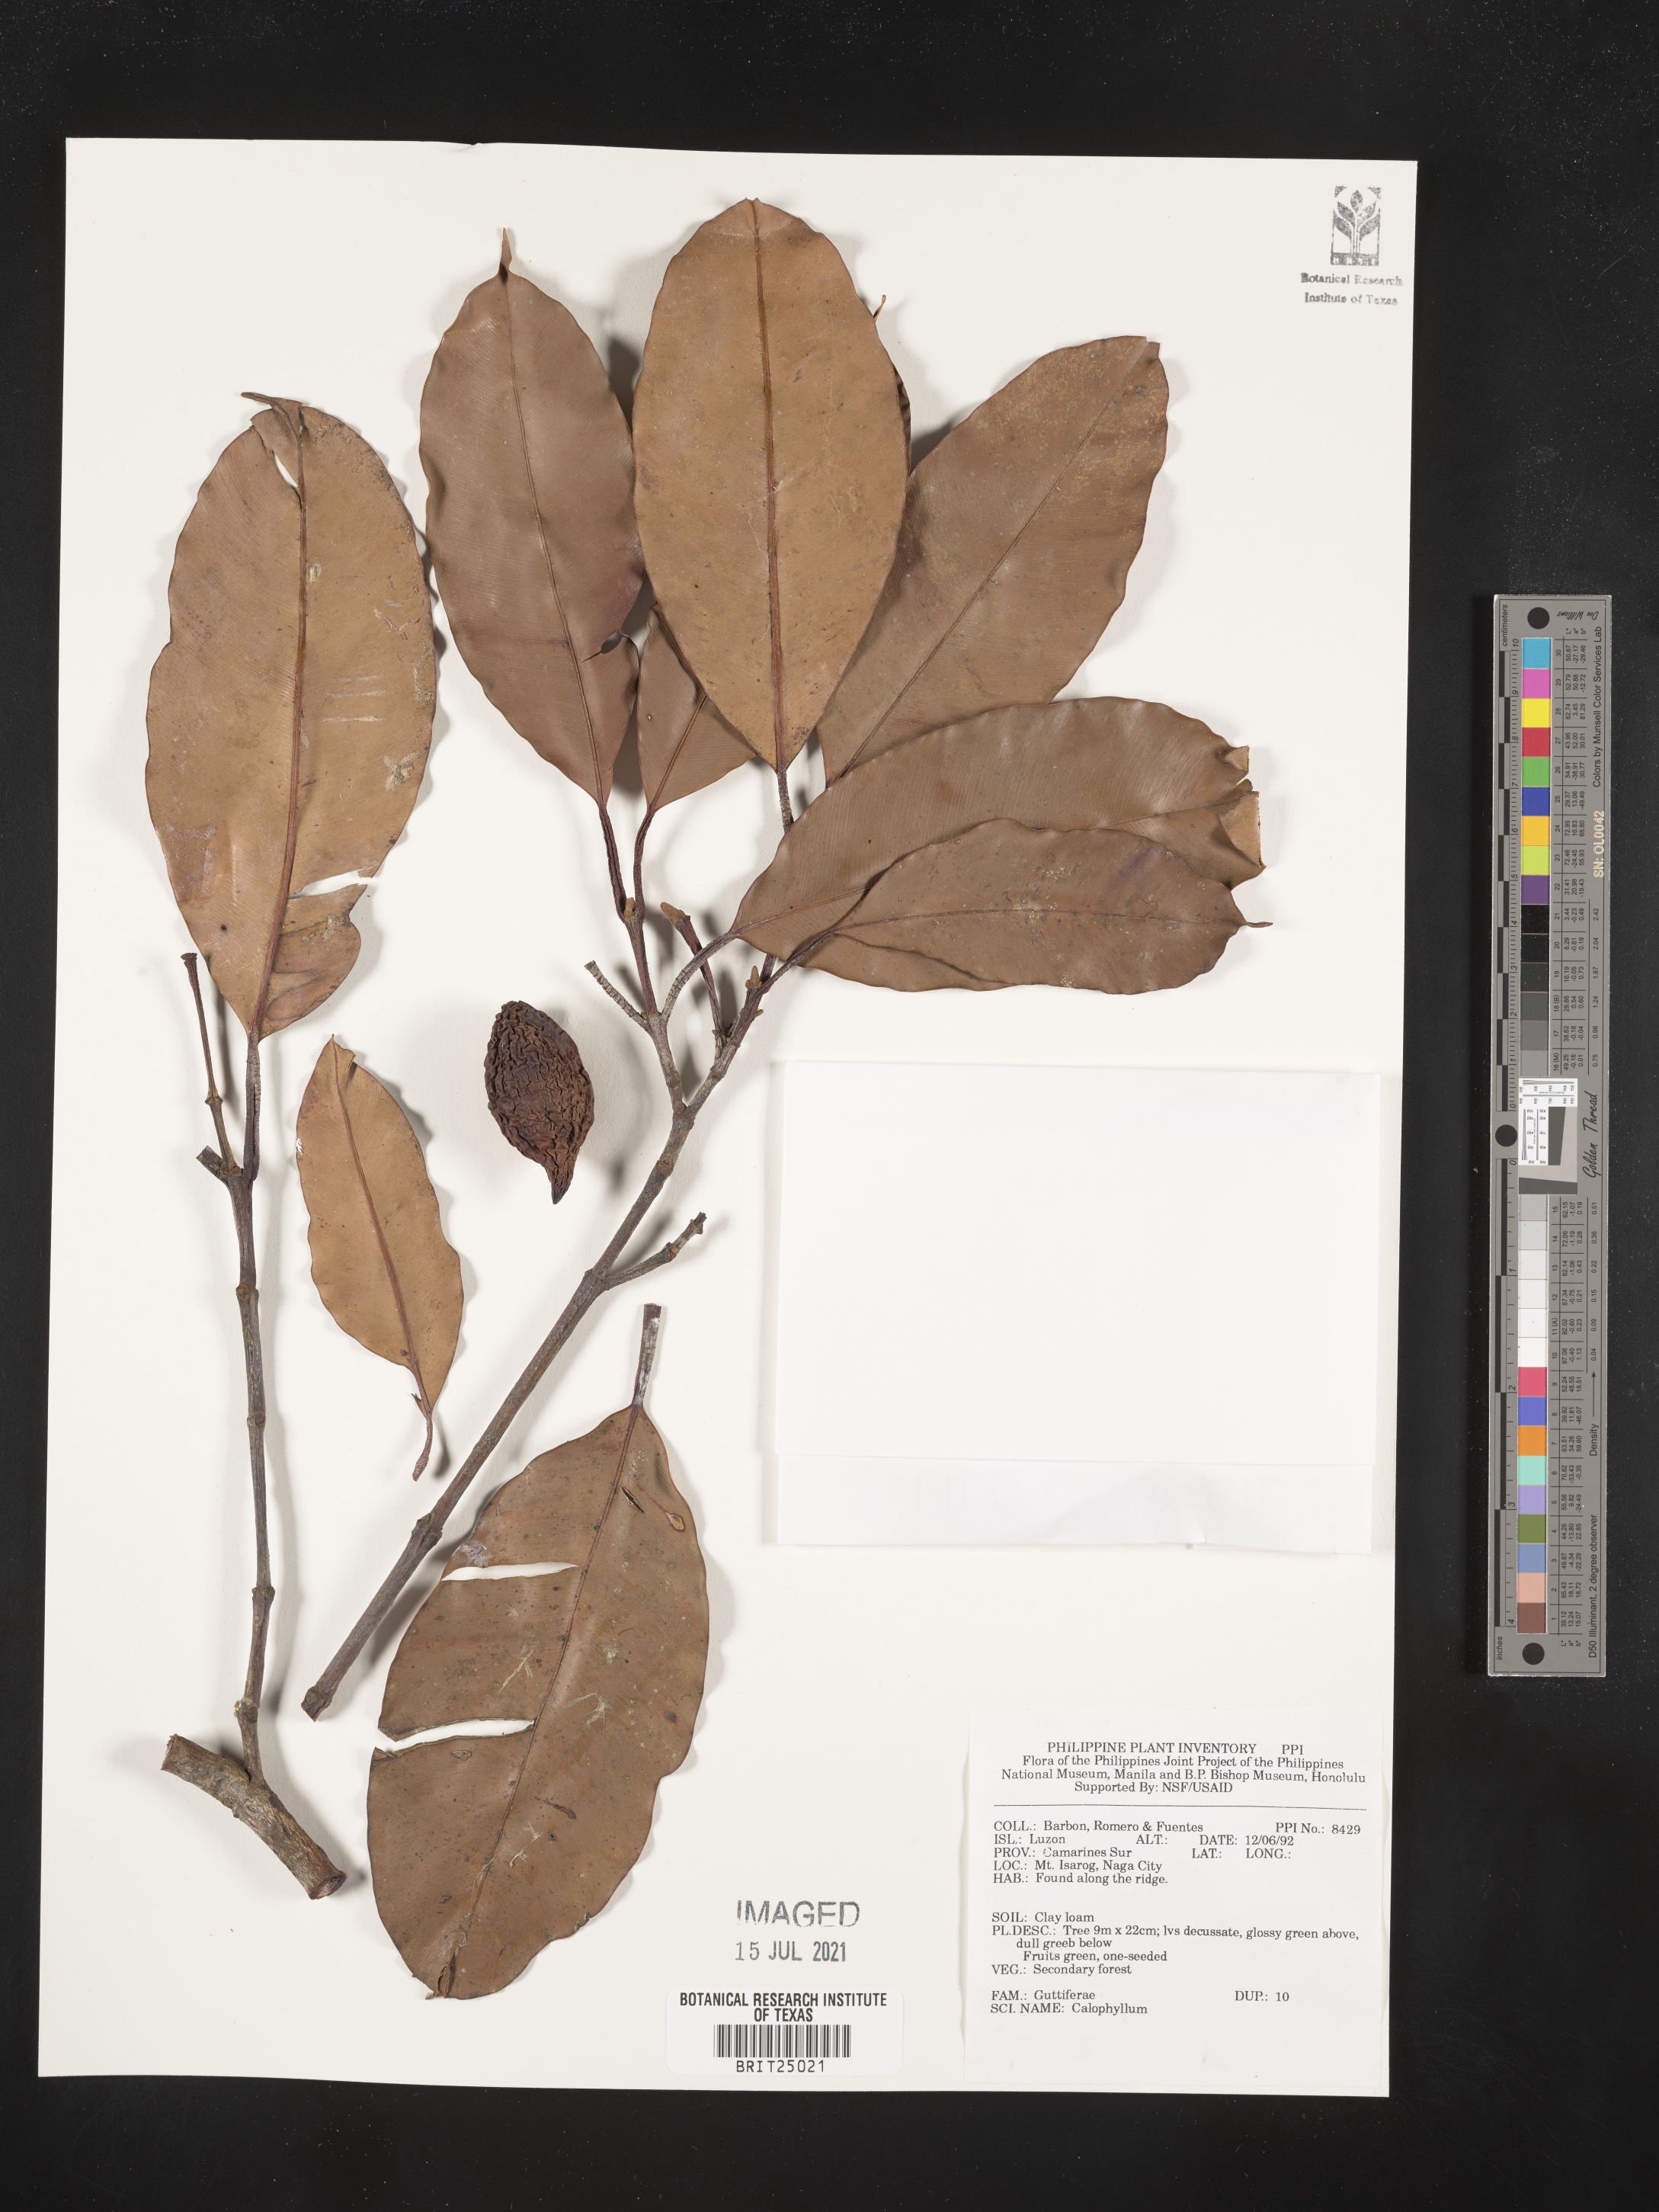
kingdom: Plantae
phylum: Tracheophyta
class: Magnoliopsida
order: Malpighiales
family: Calophyllaceae
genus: Calophyllum
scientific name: Calophyllum
